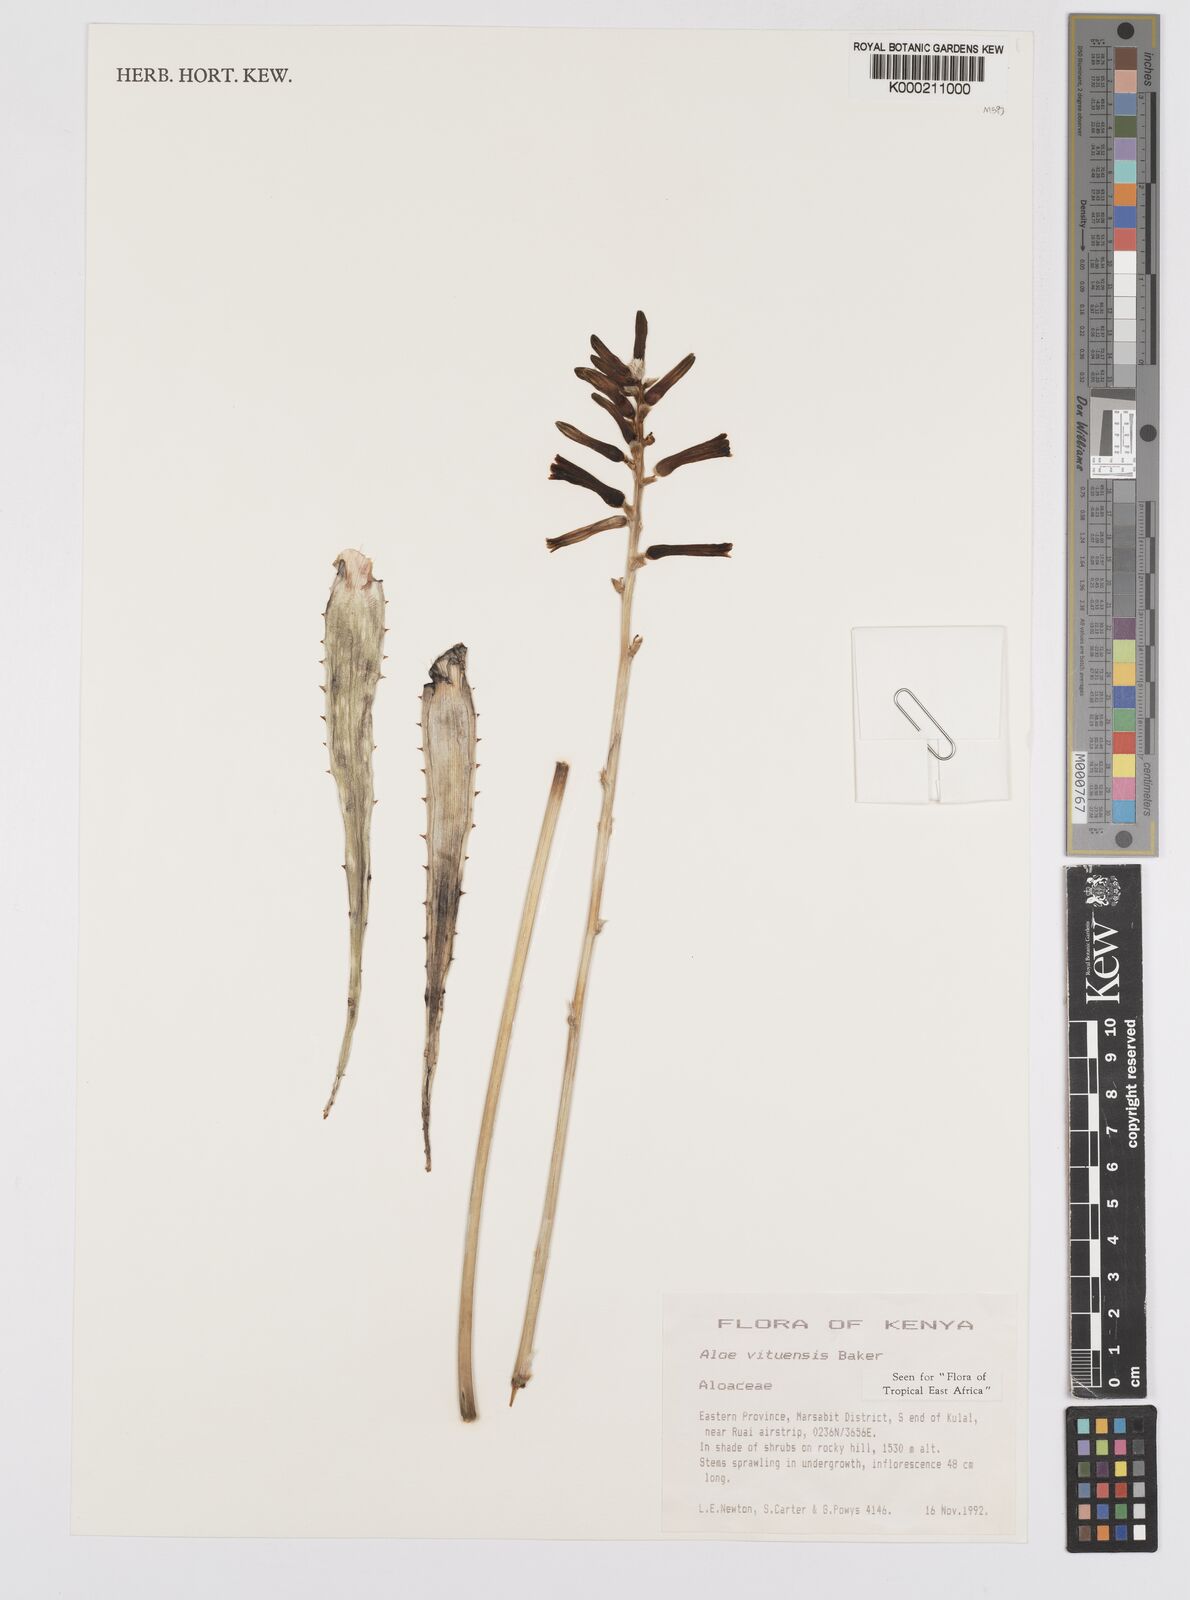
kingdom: Plantae
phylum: Tracheophyta
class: Liliopsida
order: Asparagales
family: Asphodelaceae
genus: Aloe
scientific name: Aloe vituensis
